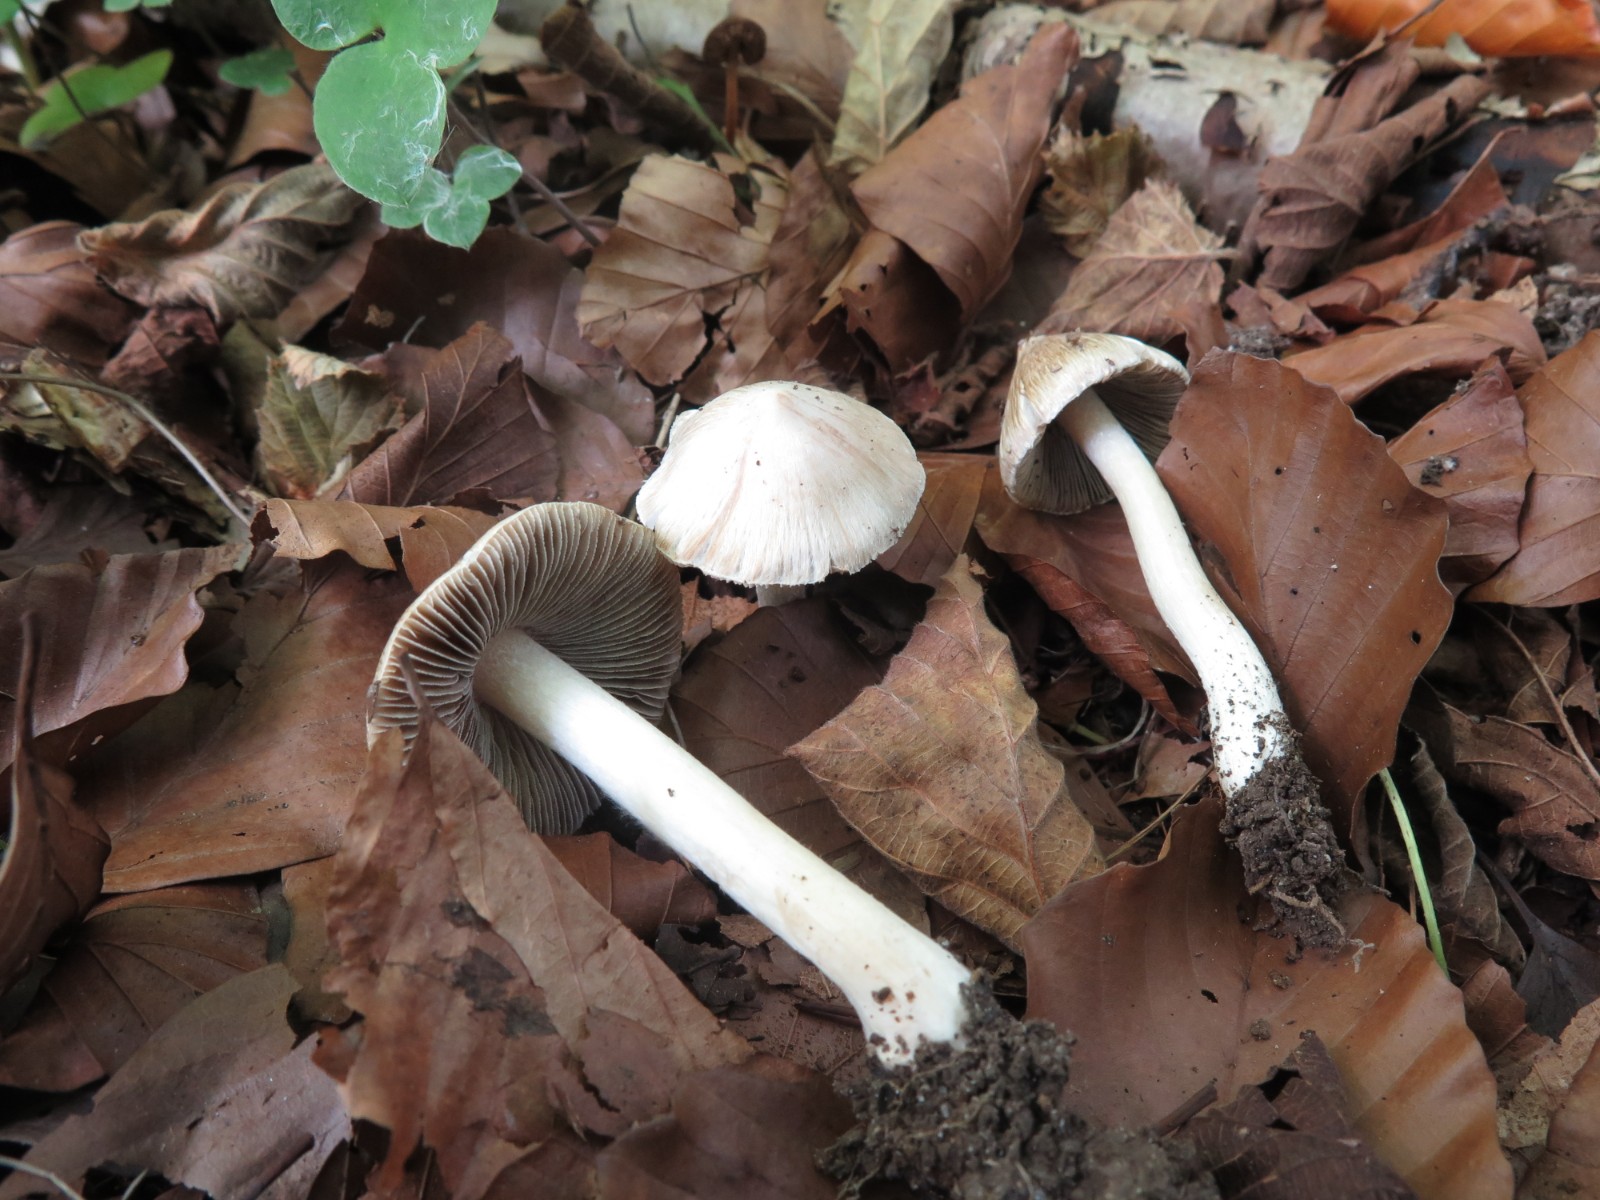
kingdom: Fungi
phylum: Basidiomycota
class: Agaricomycetes
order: Agaricales
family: Inocybaceae
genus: Inocybe
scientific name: Inocybe
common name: almindelig trævlhat
